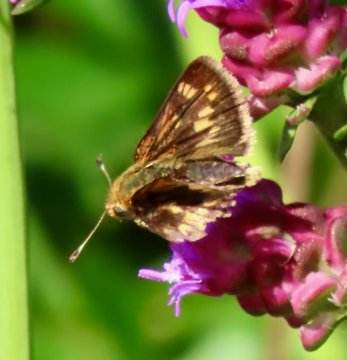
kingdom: Animalia
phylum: Arthropoda
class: Insecta
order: Lepidoptera
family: Hesperiidae
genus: Polites
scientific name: Polites coras
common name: Peck's Skipper
